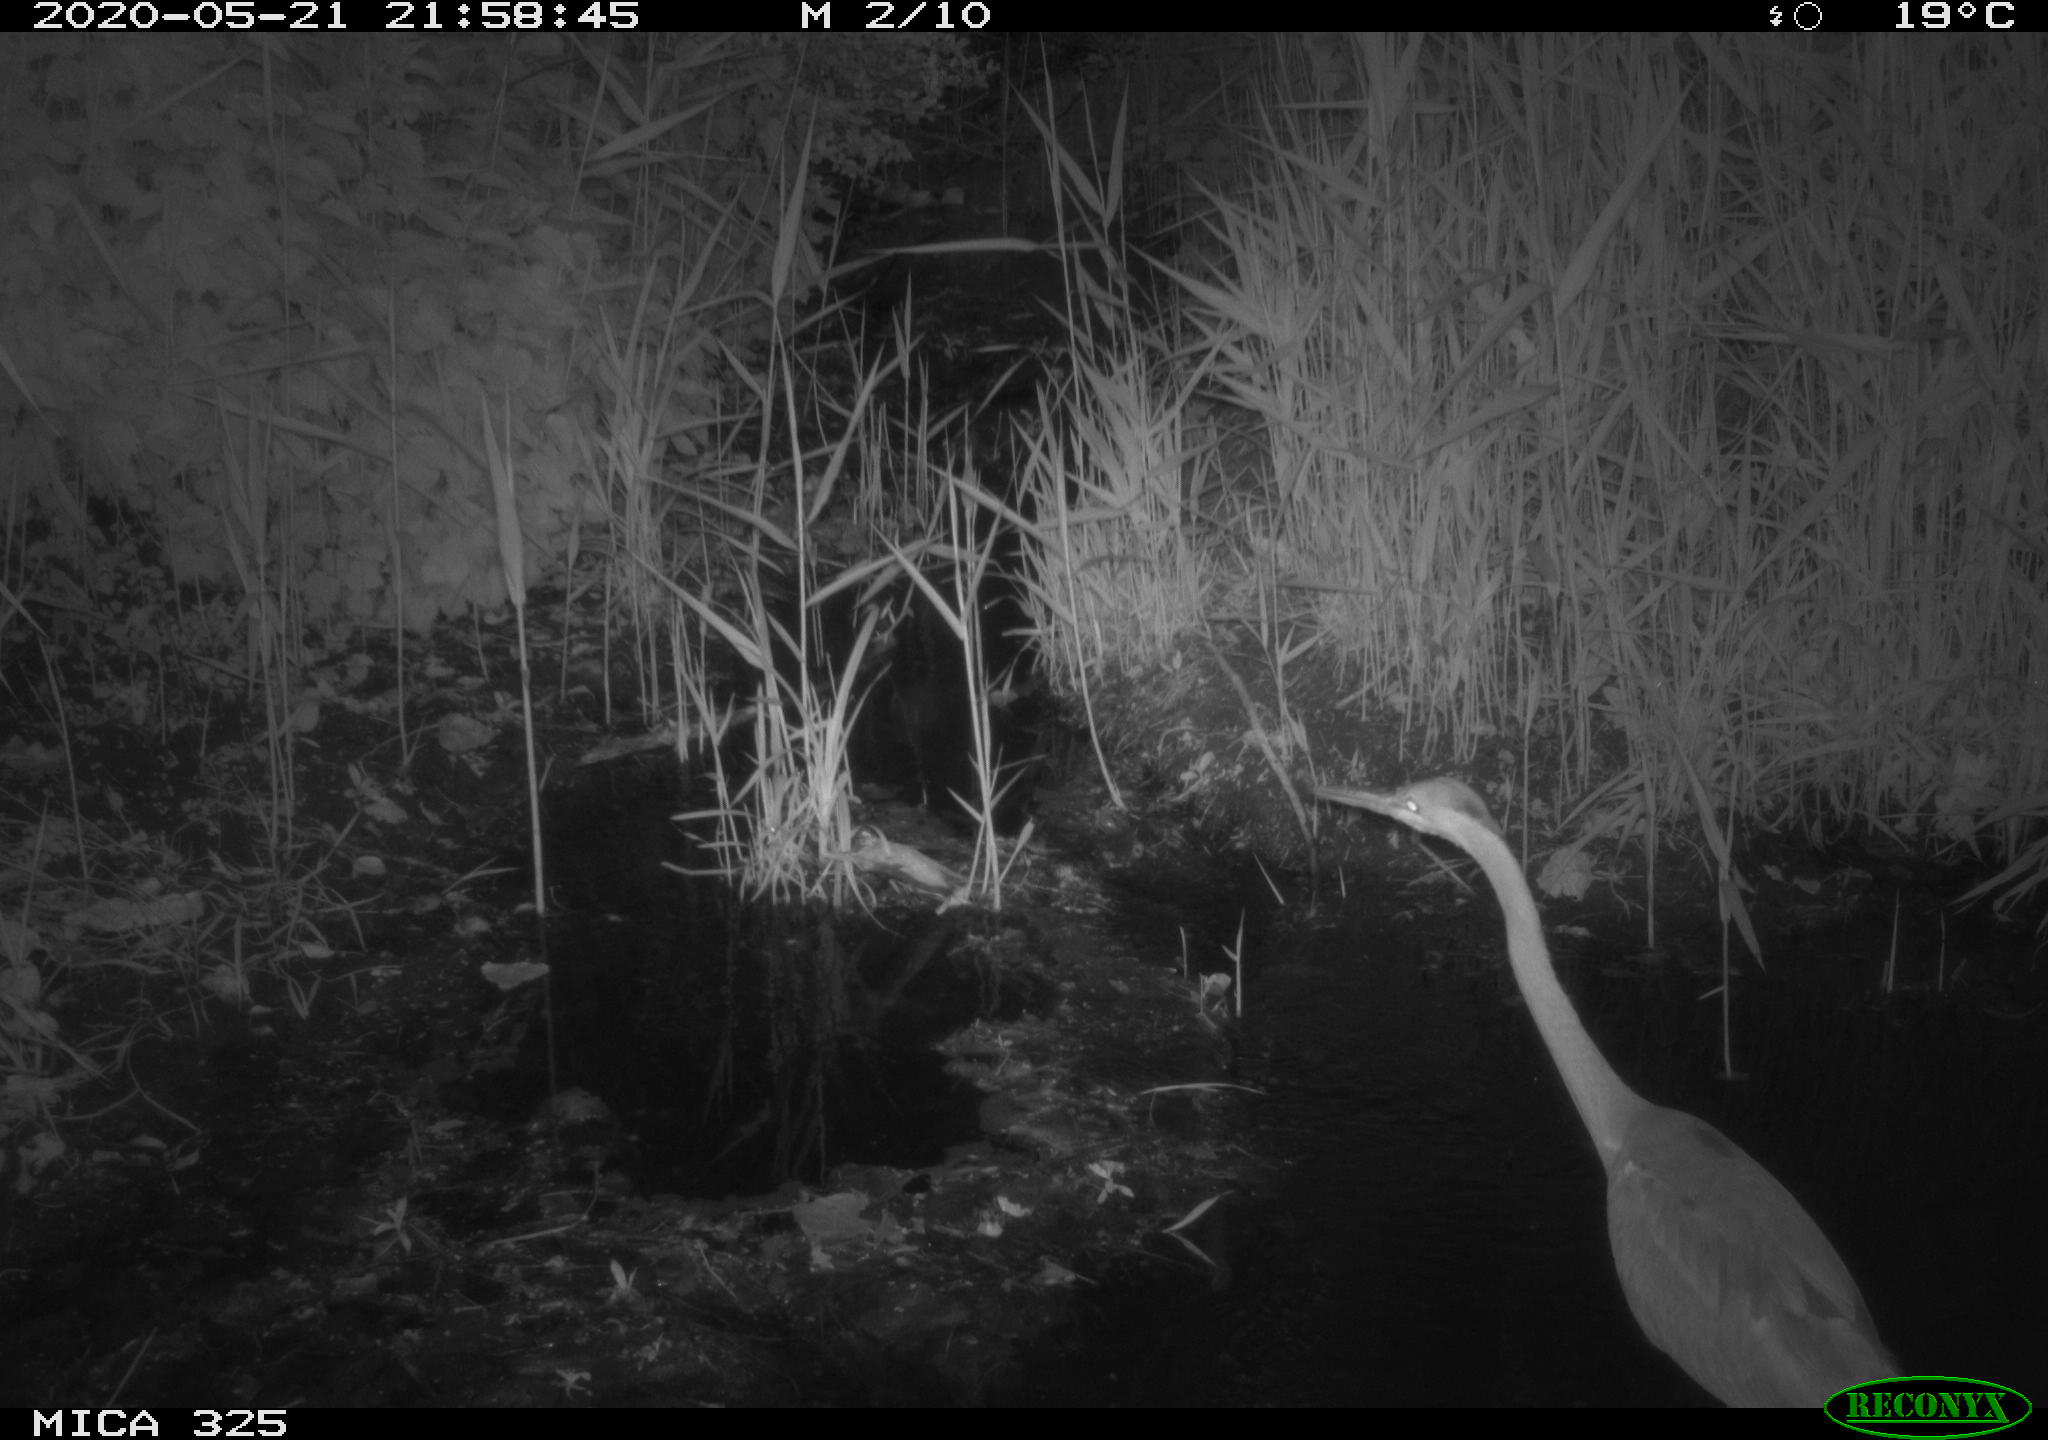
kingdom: Animalia
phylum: Chordata
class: Aves
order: Pelecaniformes
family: Ardeidae
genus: Ardea
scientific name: Ardea cinerea
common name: Grey heron
